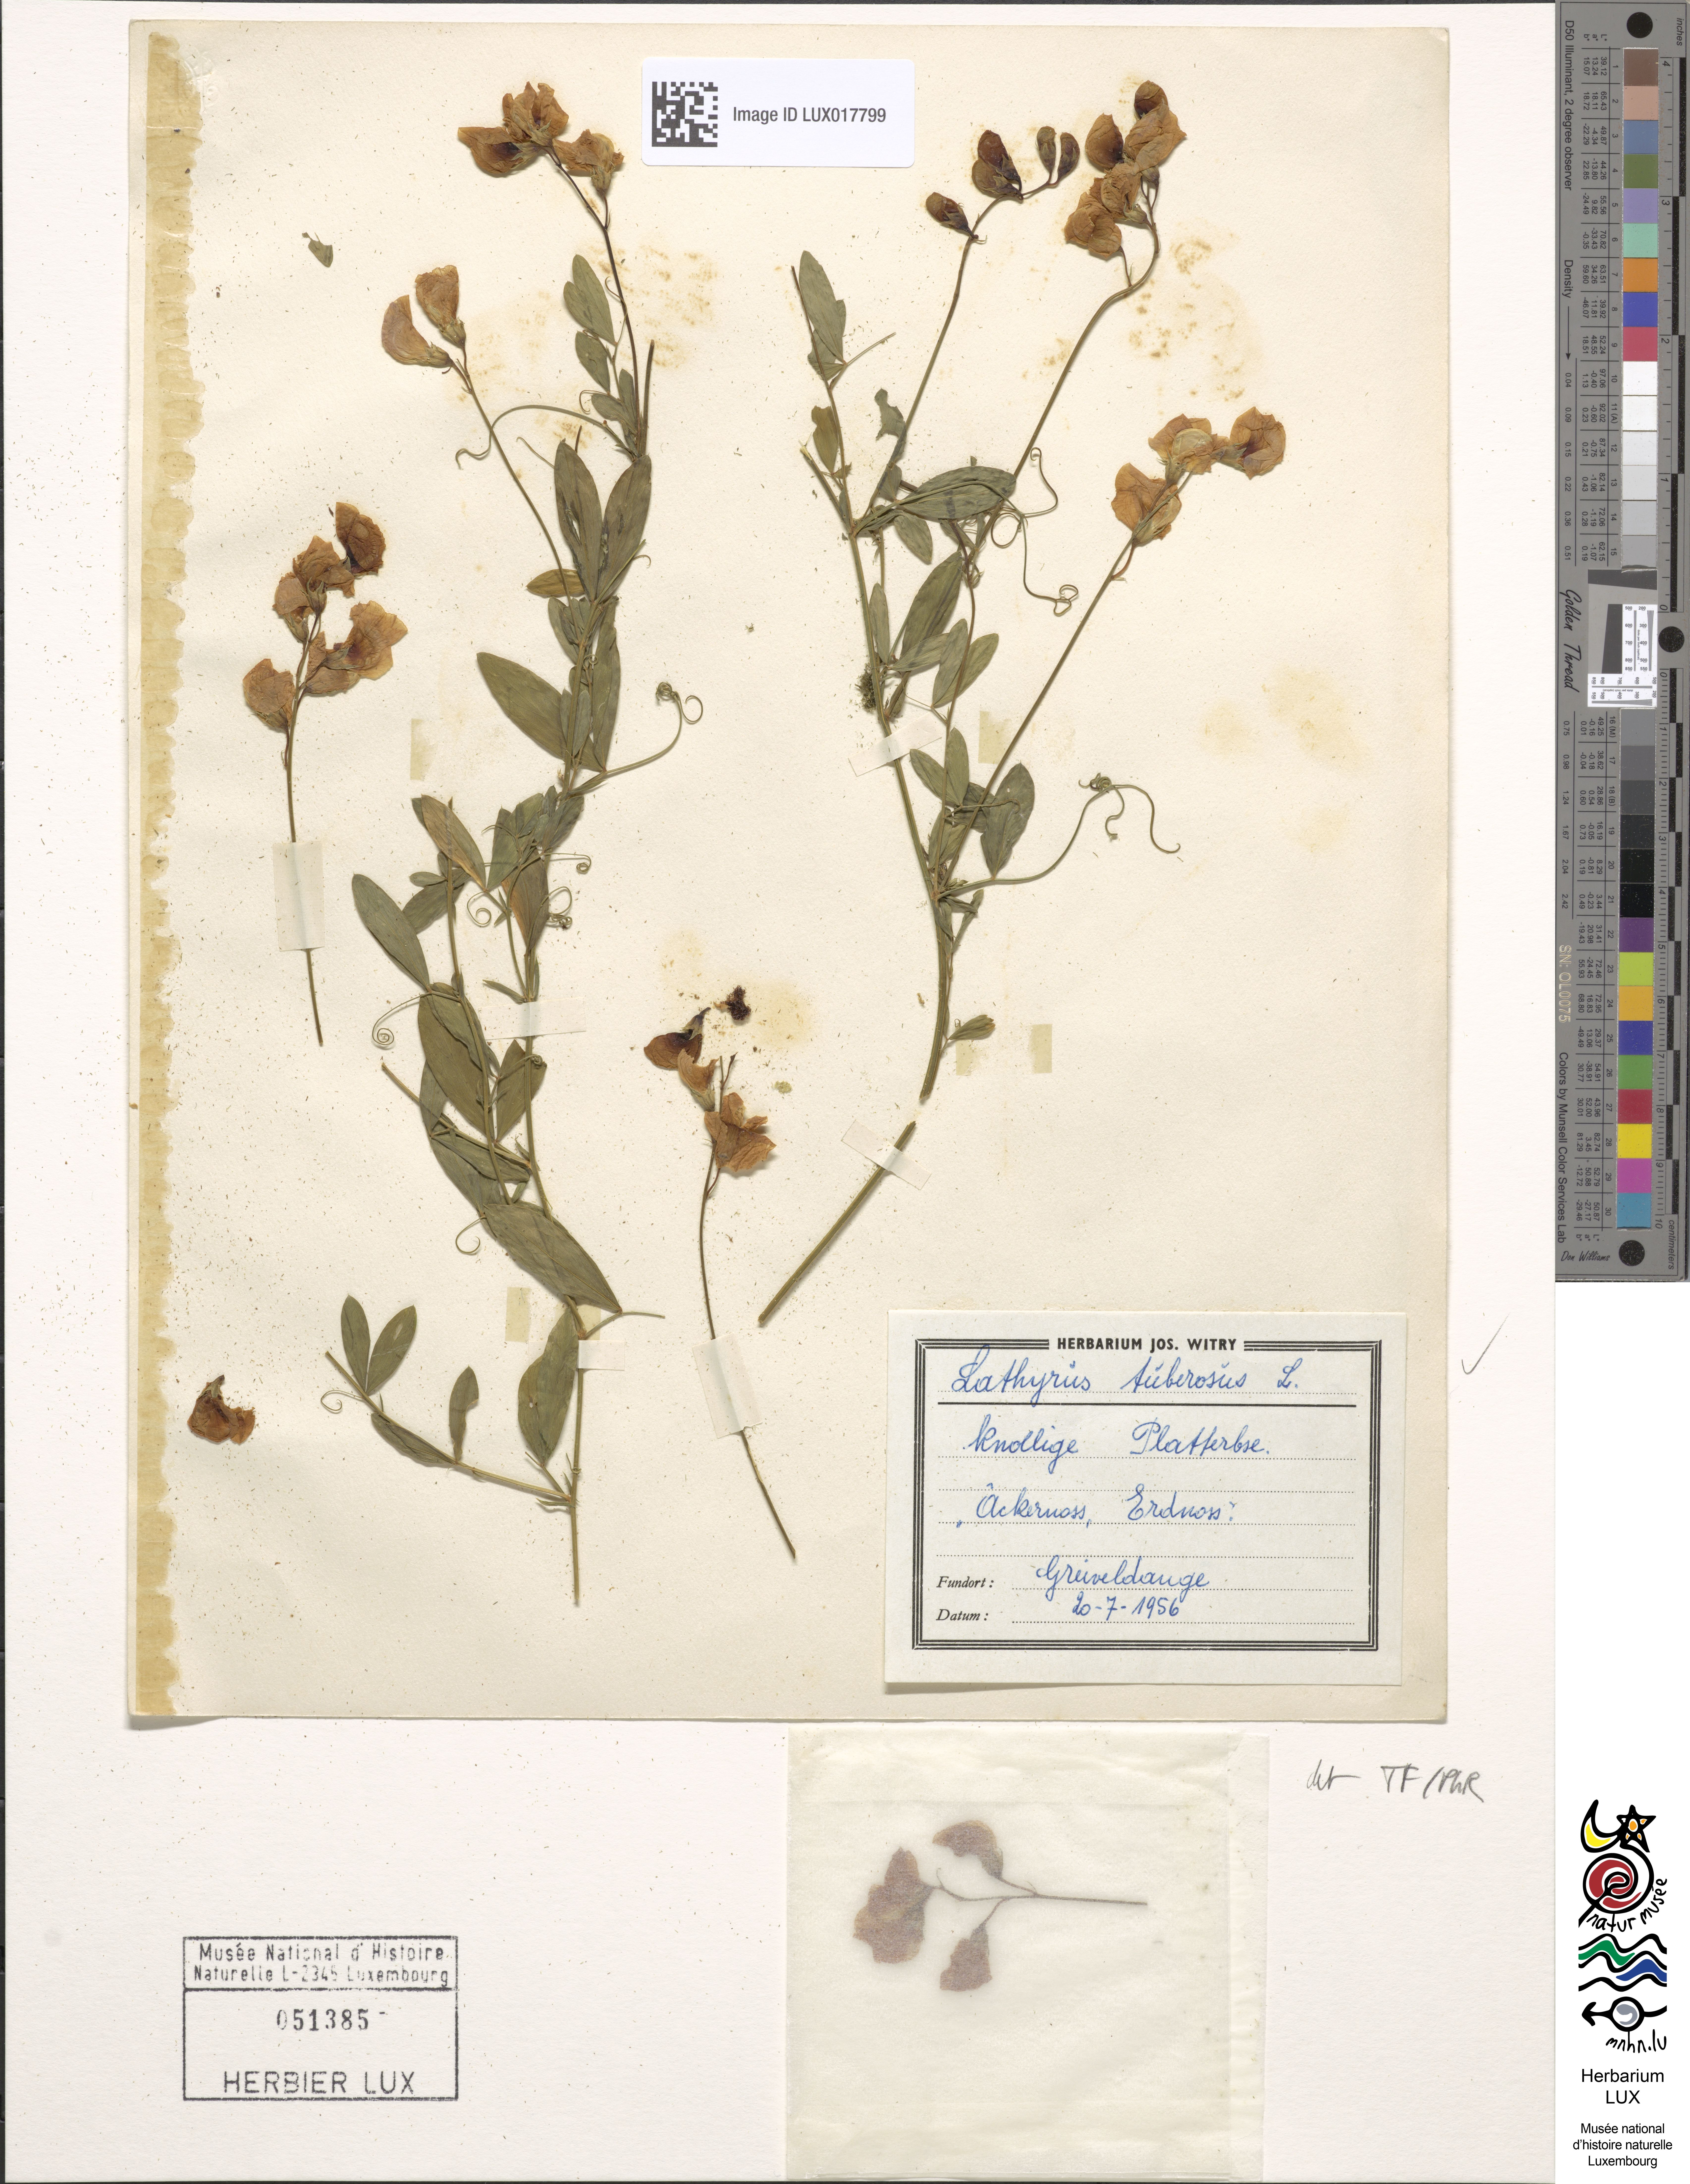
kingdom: Plantae
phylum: Tracheophyta
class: Magnoliopsida
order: Fabales
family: Fabaceae
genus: Lathyrus
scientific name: Lathyrus tuberosus
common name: Tuberous pea
